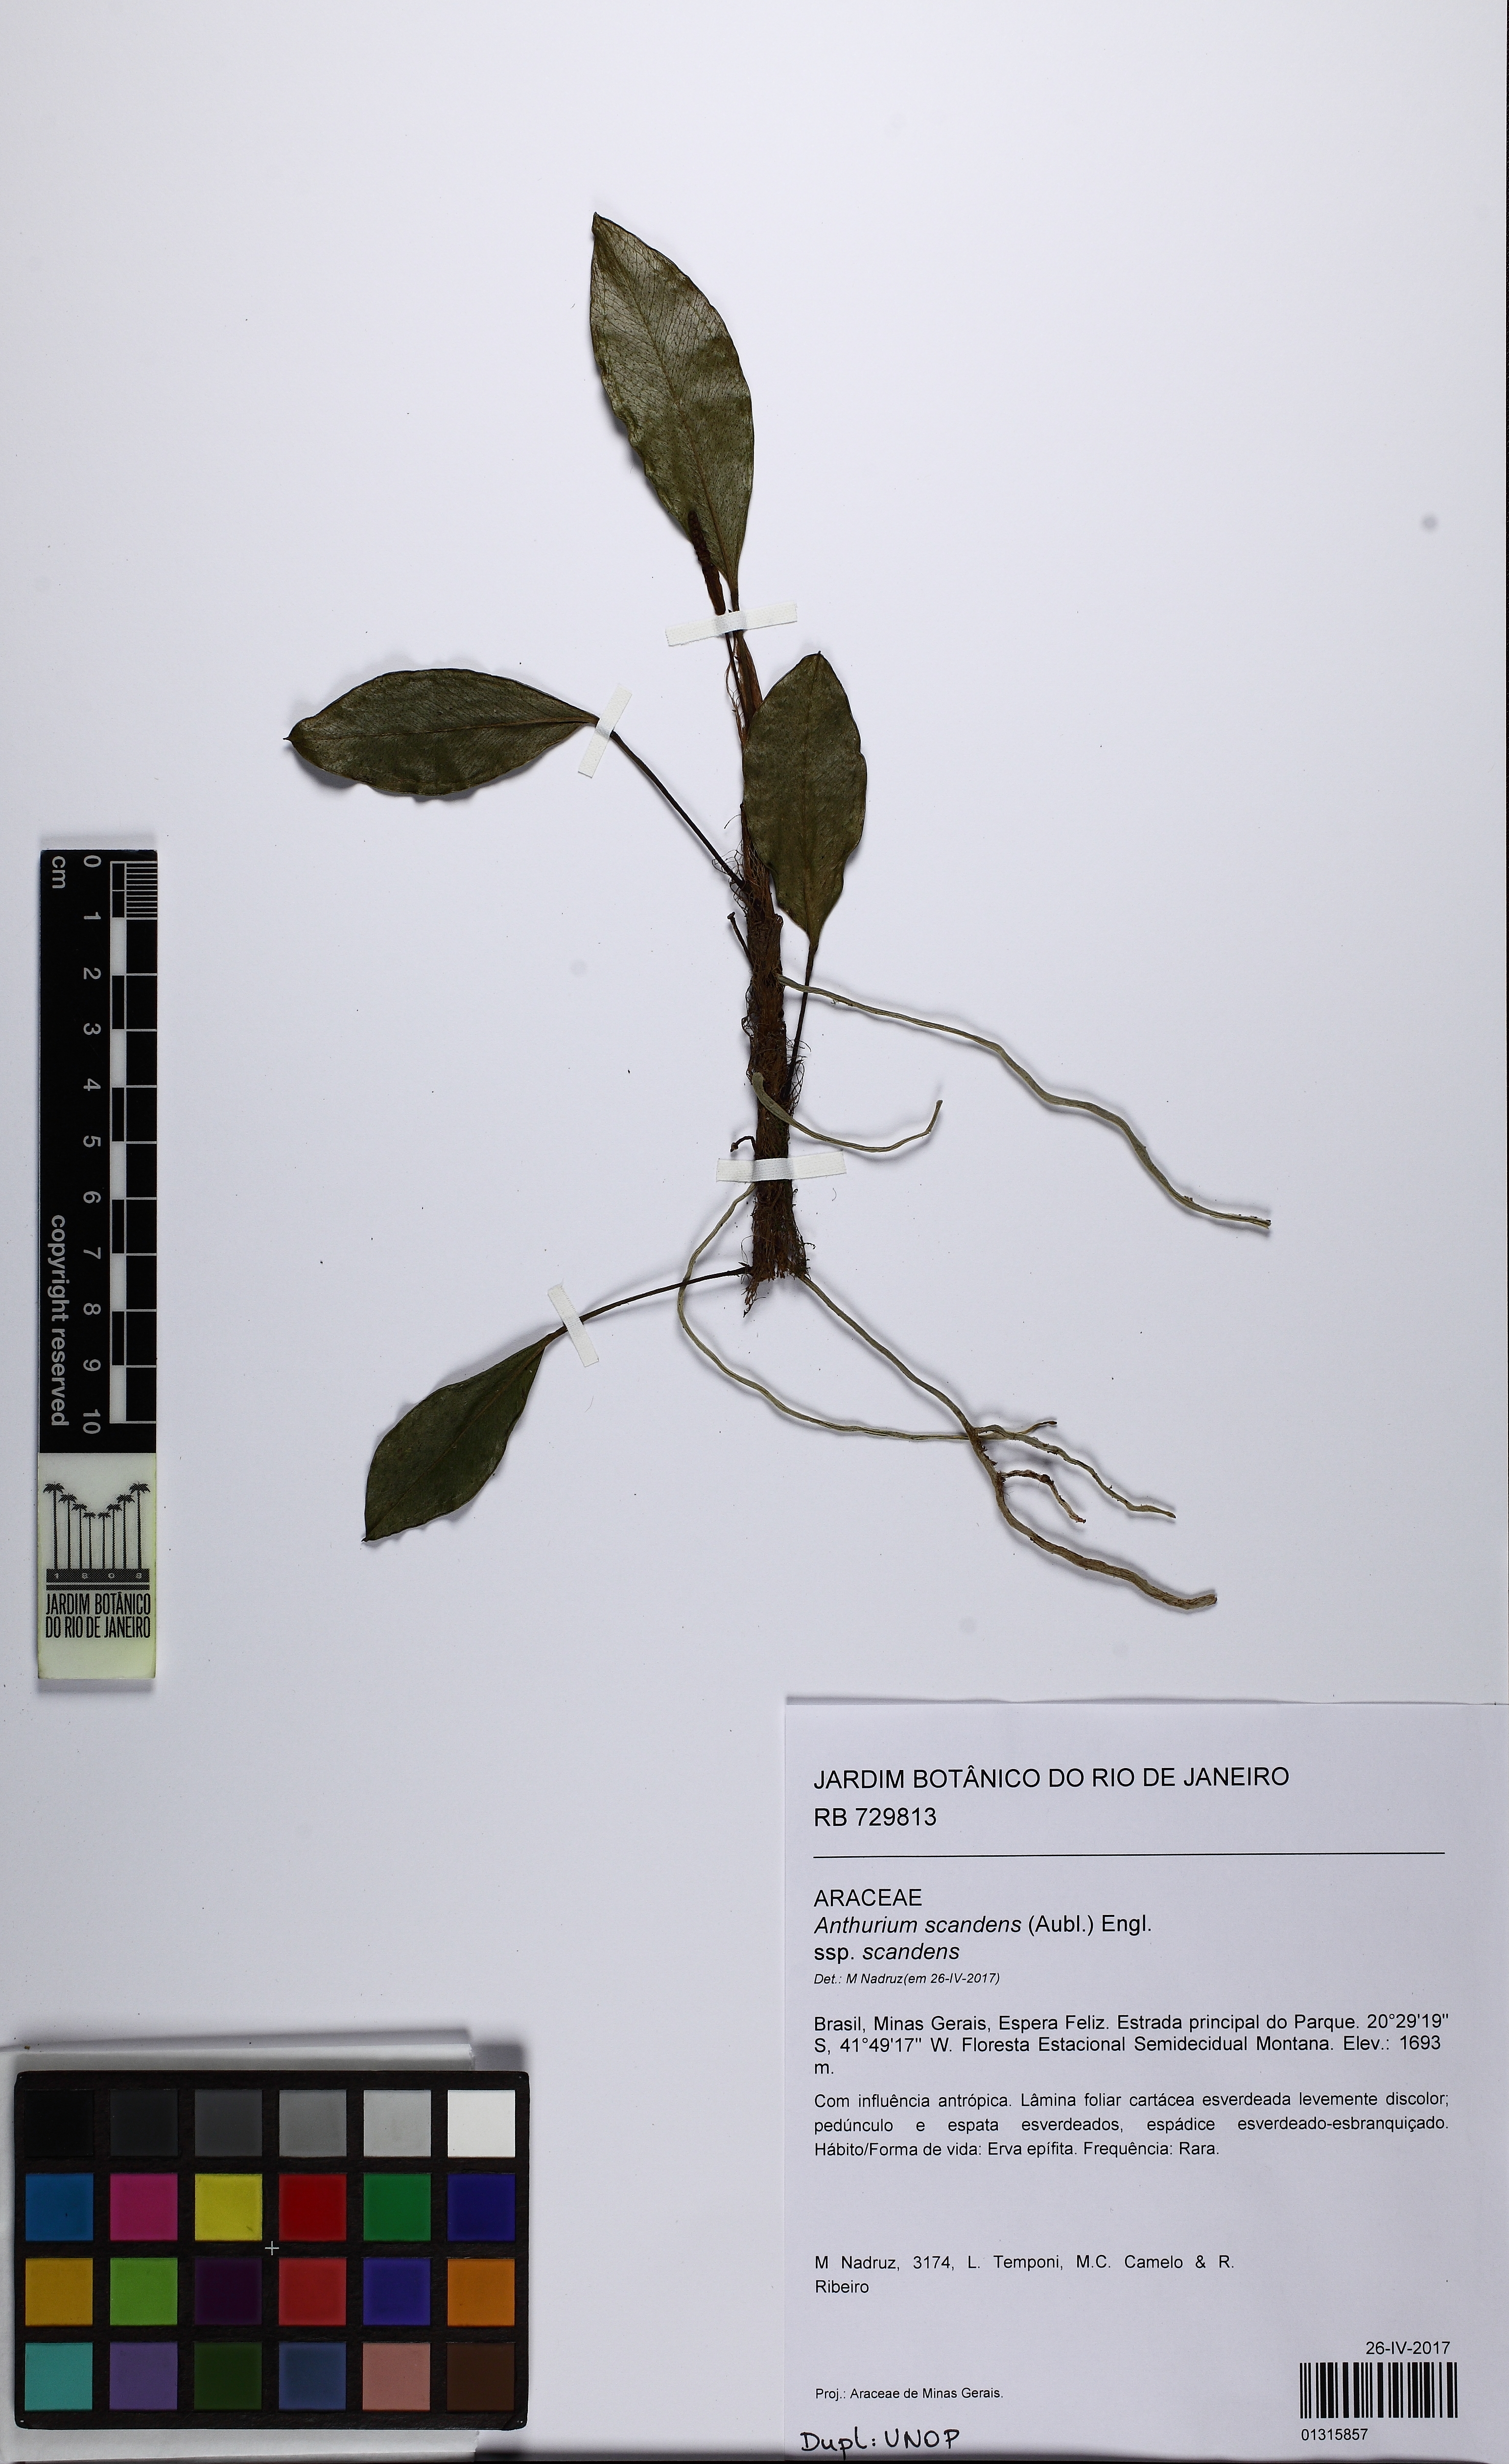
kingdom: Plantae
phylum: Tracheophyta
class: Liliopsida
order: Alismatales
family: Araceae
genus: Anthurium
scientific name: Anthurium scandens
